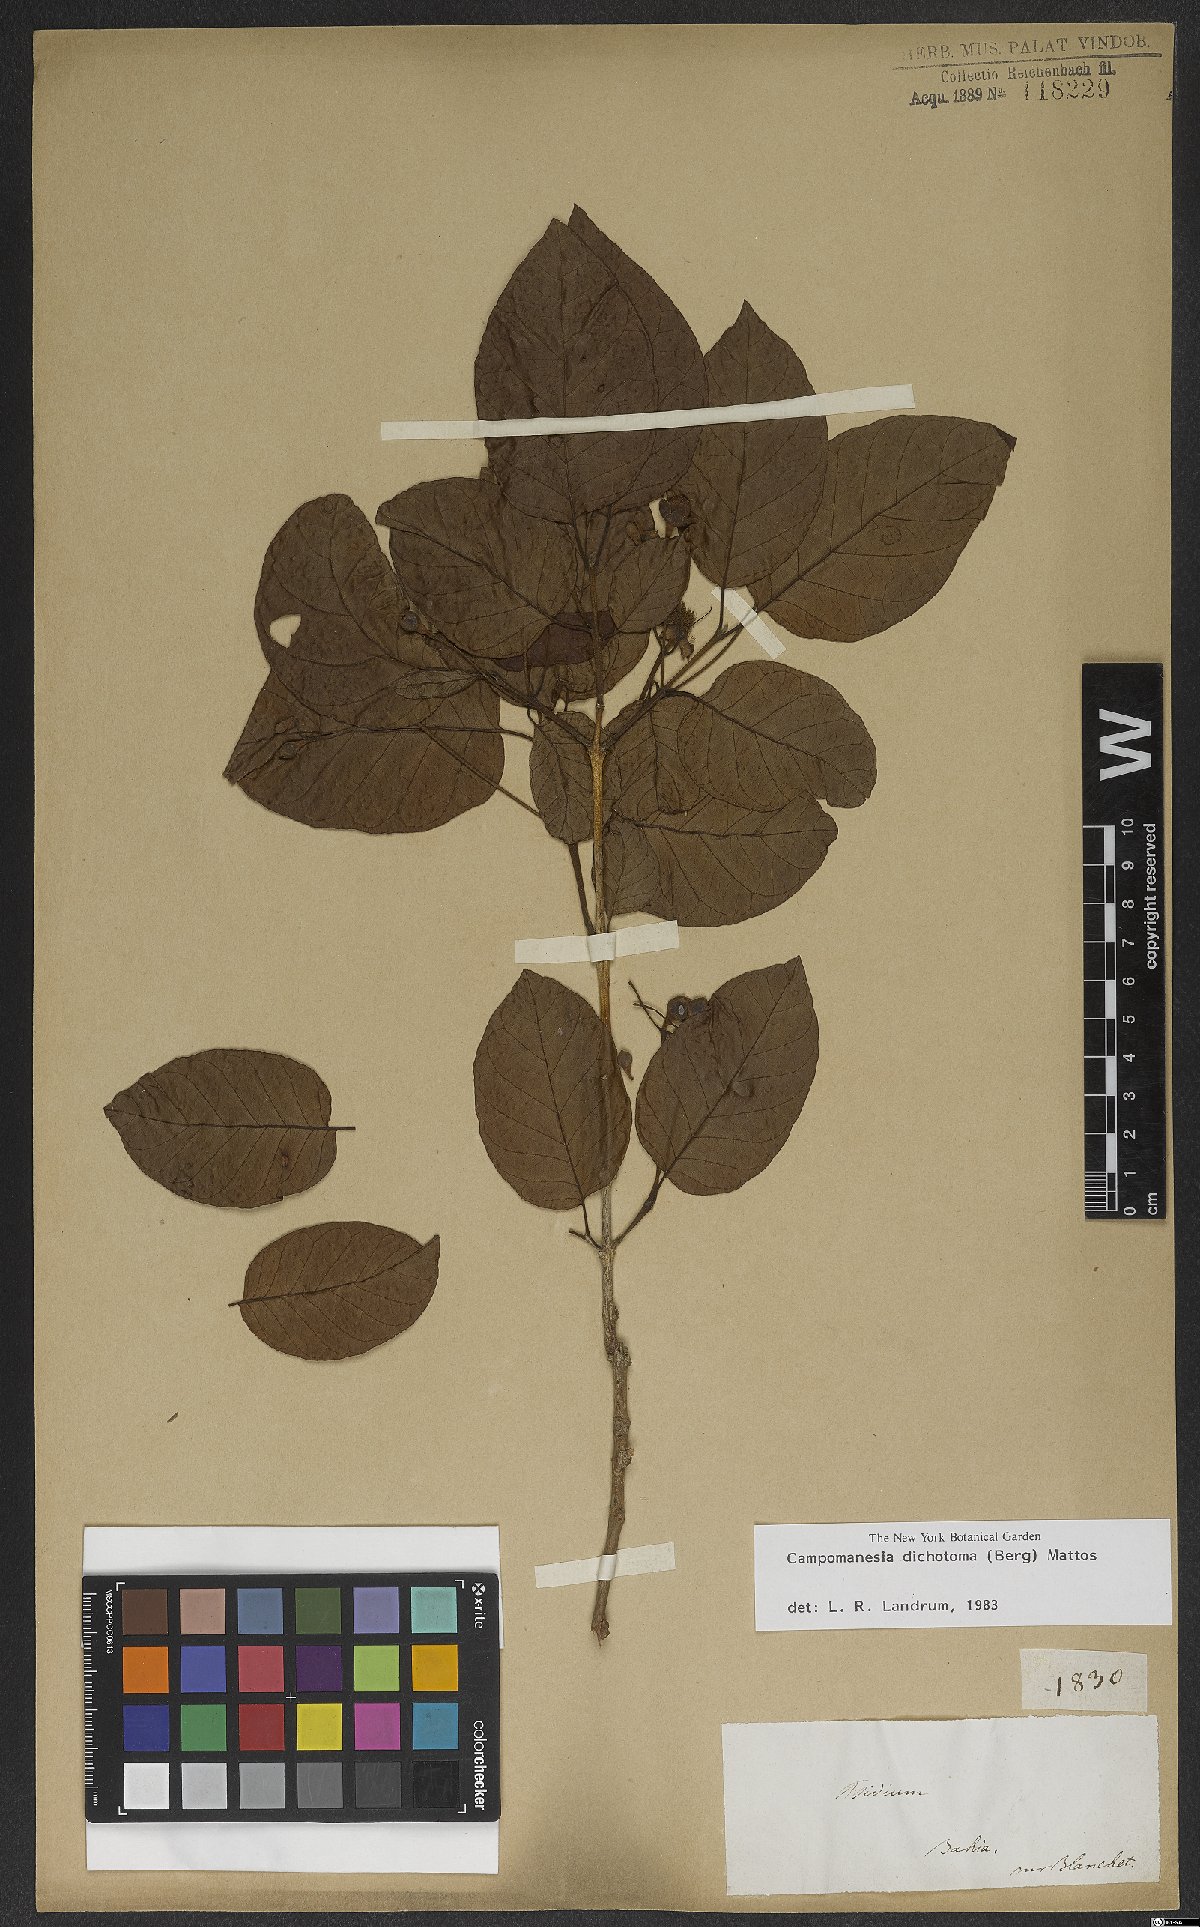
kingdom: Plantae
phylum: Tracheophyta
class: Magnoliopsida
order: Myrtales
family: Myrtaceae
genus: Campomanesia
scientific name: Campomanesia dichotoma
